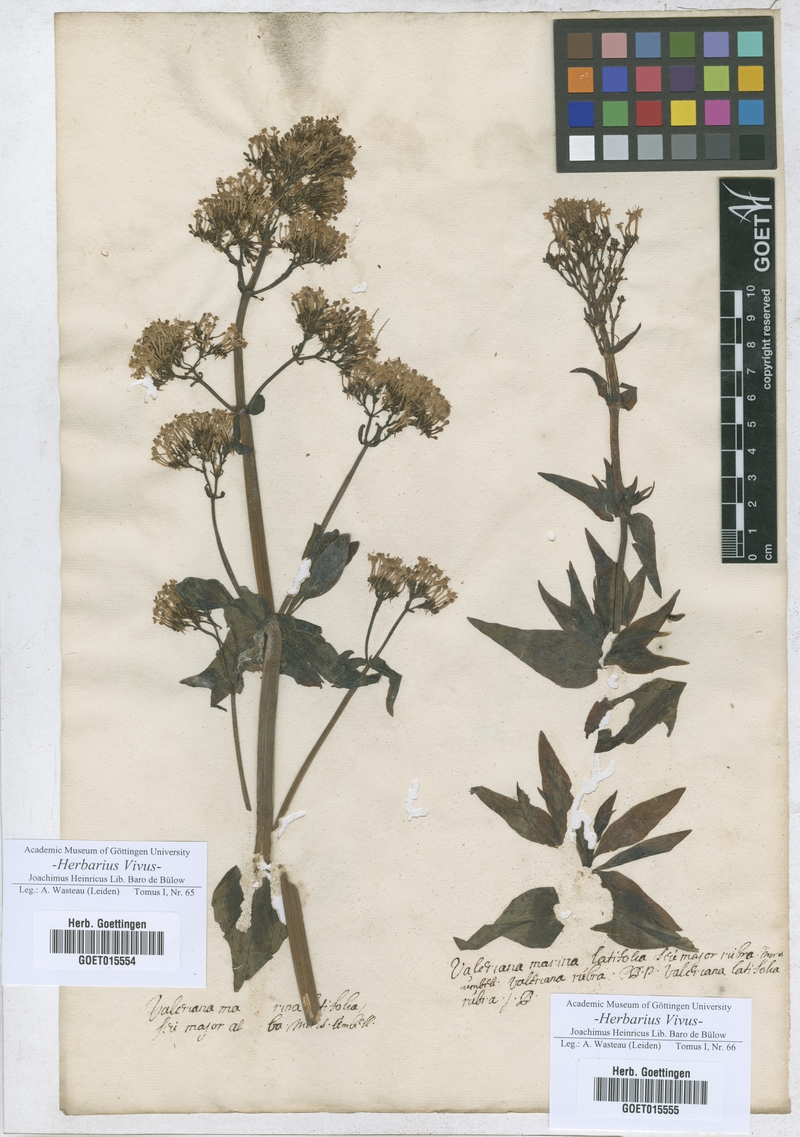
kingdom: Plantae
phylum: Tracheophyta
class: Magnoliopsida
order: Dipsacales
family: Caprifoliaceae
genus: Valeriana
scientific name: Valeriana
